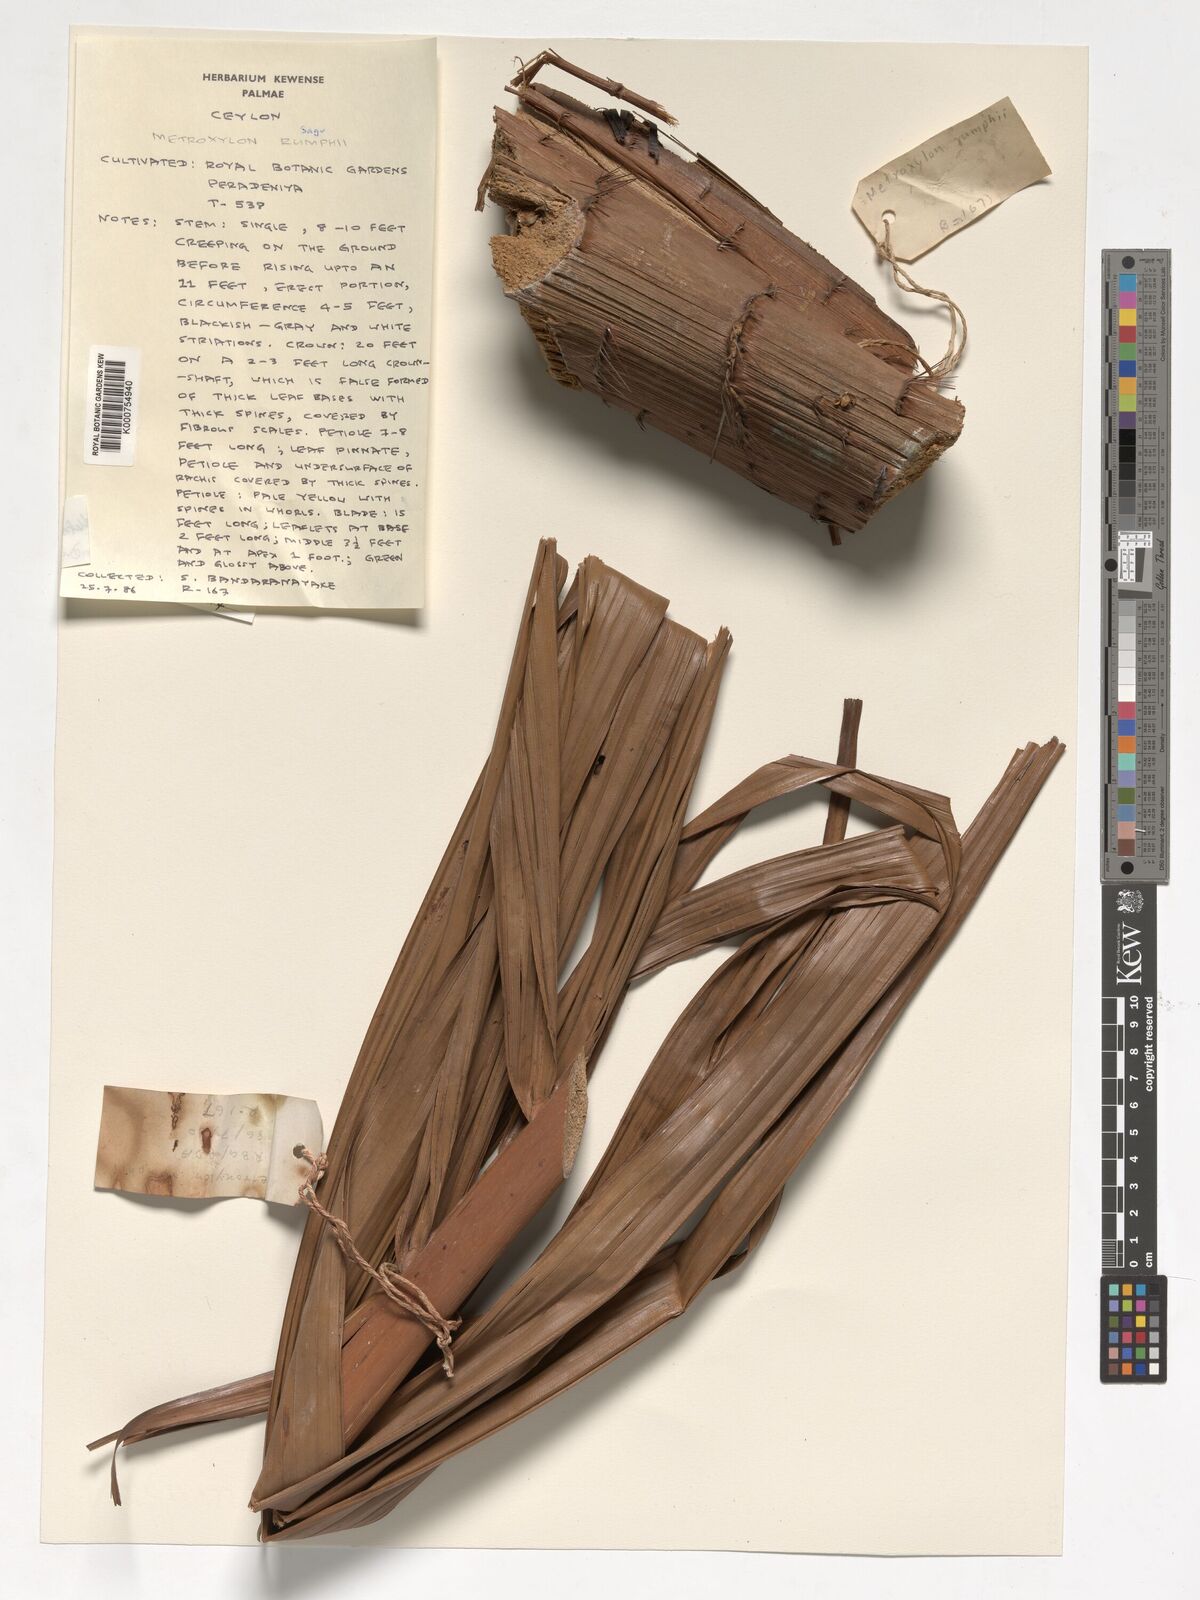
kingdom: Plantae
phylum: Tracheophyta
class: Liliopsida
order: Arecales
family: Arecaceae
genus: Metroxylon
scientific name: Metroxylon sagu
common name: Sago palm
